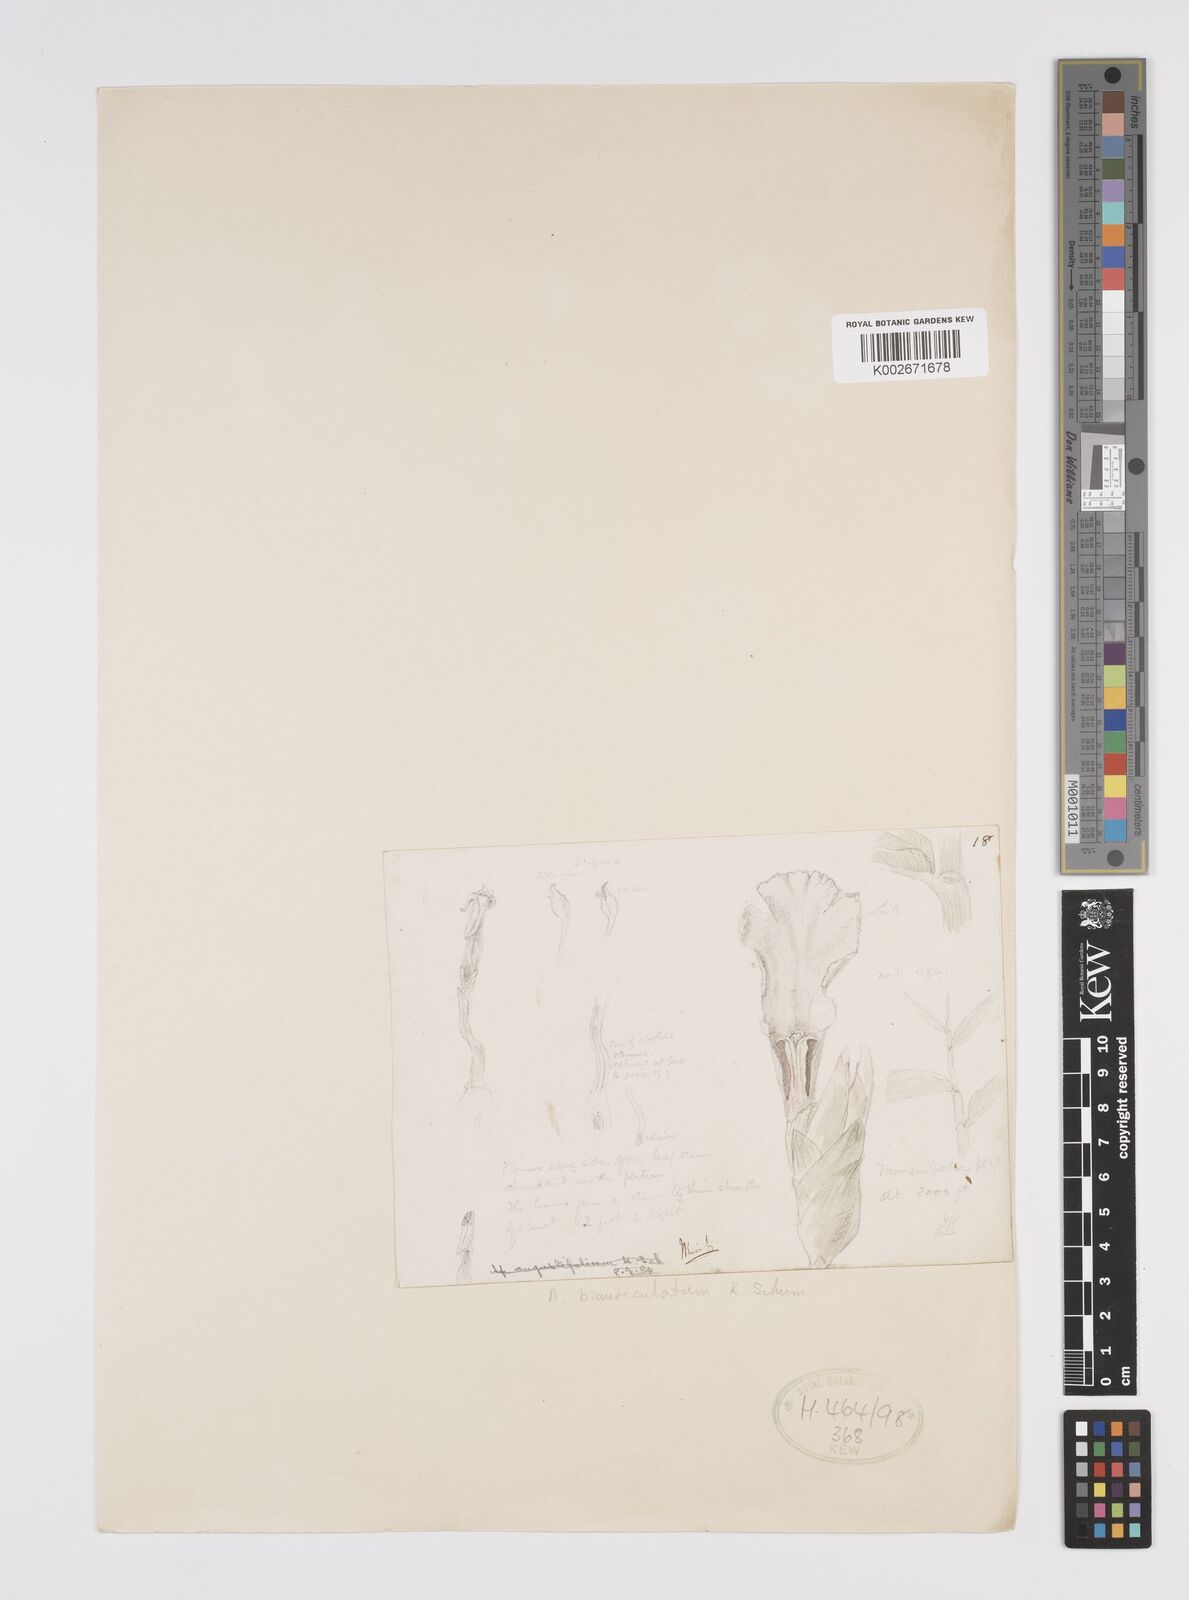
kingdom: Plantae
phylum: Tracheophyta
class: Liliopsida
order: Zingiberales
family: Zingiberaceae
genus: Aframomum
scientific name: Aframomum alboviolaceum
